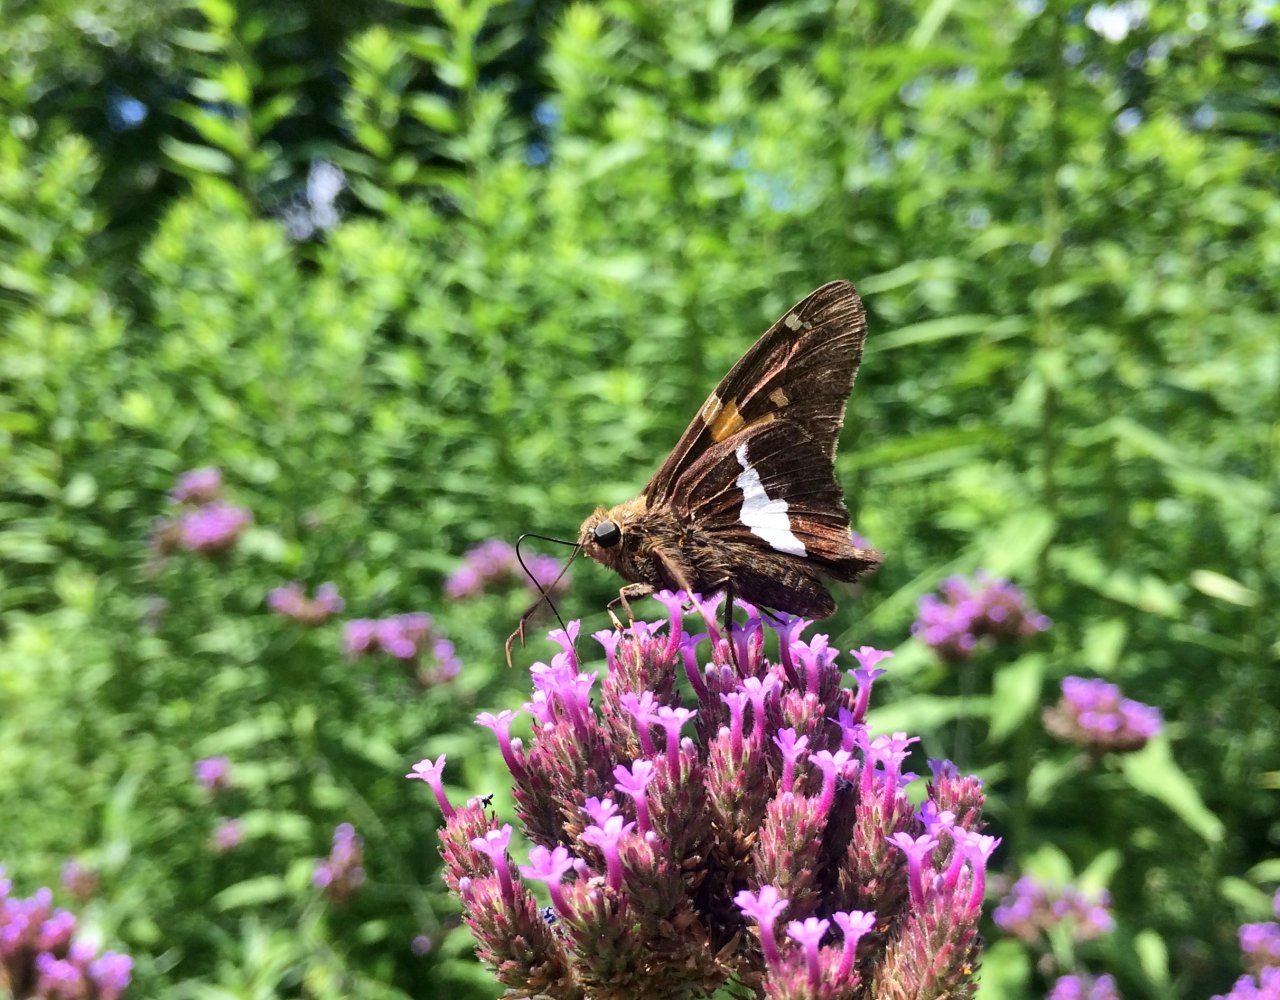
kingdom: Animalia
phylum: Arthropoda
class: Insecta
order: Lepidoptera
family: Hesperiidae
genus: Epargyreus
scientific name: Epargyreus clarus
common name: Silver-spotted Skipper
